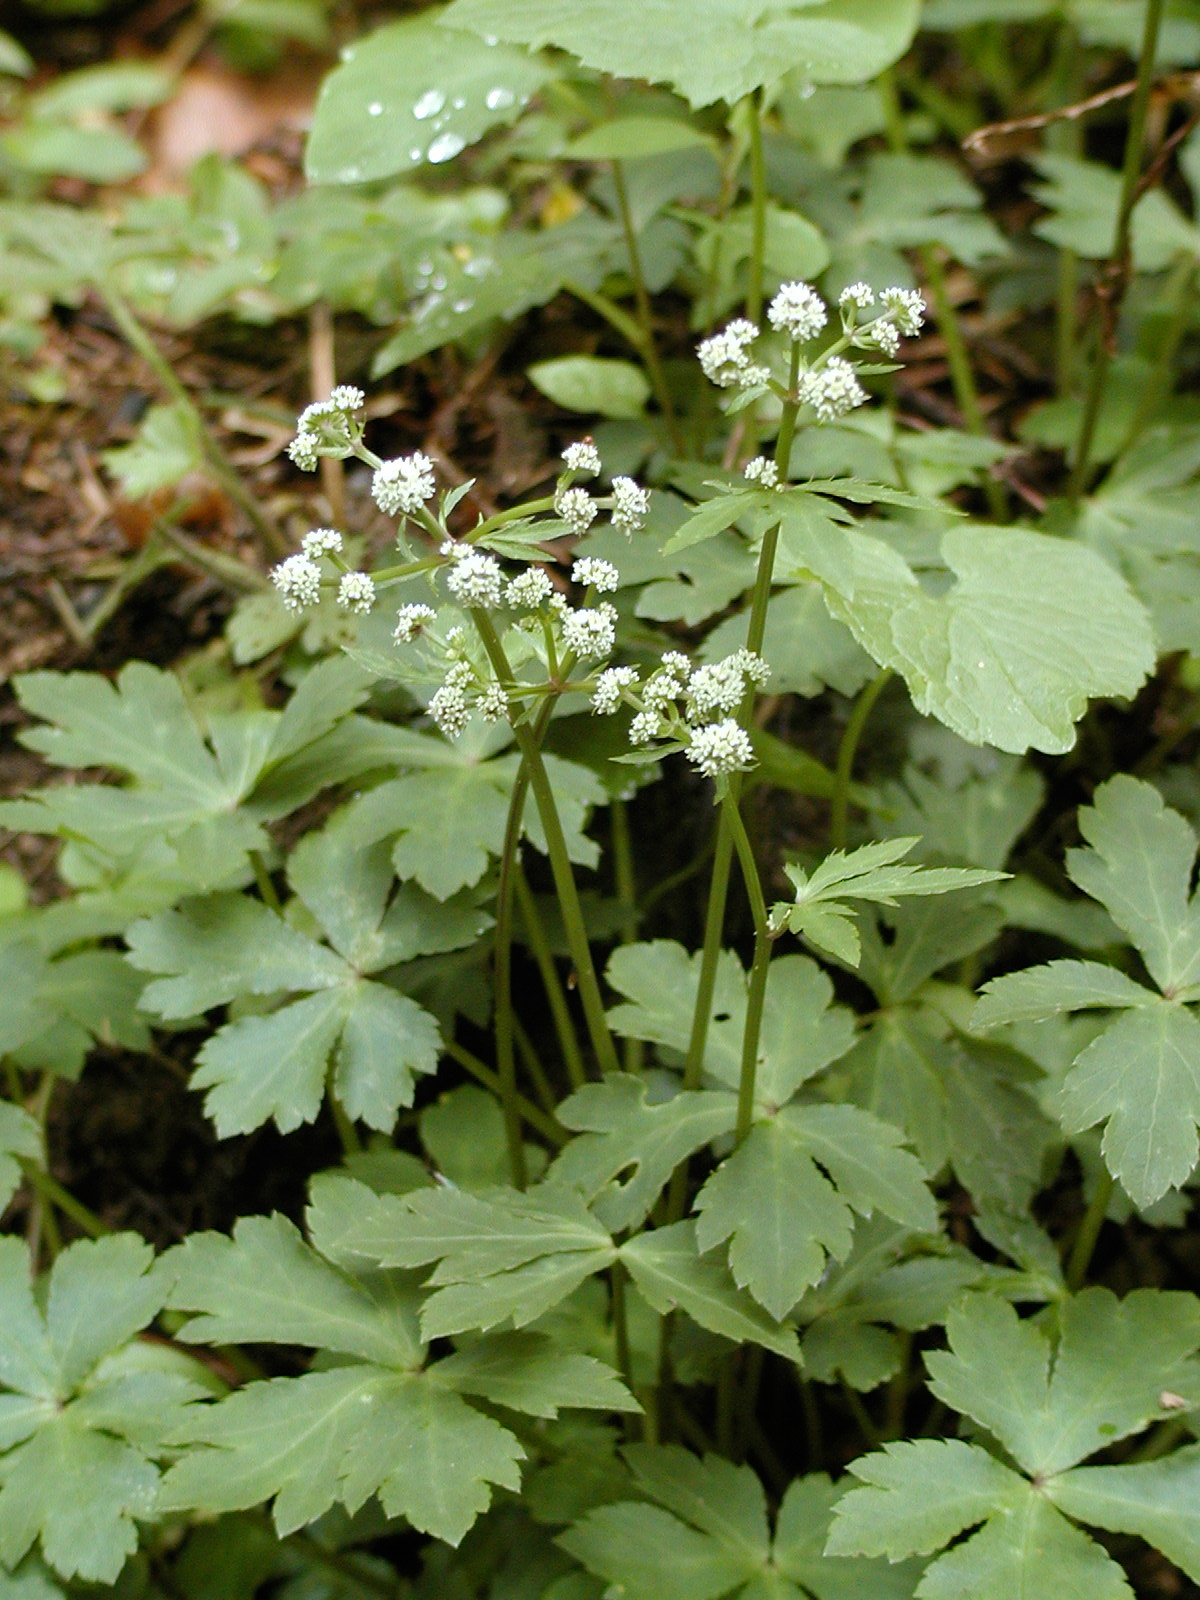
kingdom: Plantae
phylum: Tracheophyta
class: Magnoliopsida
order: Apiales
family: Apiaceae
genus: Sanicula
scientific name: Sanicula europaea
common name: Sanicle
